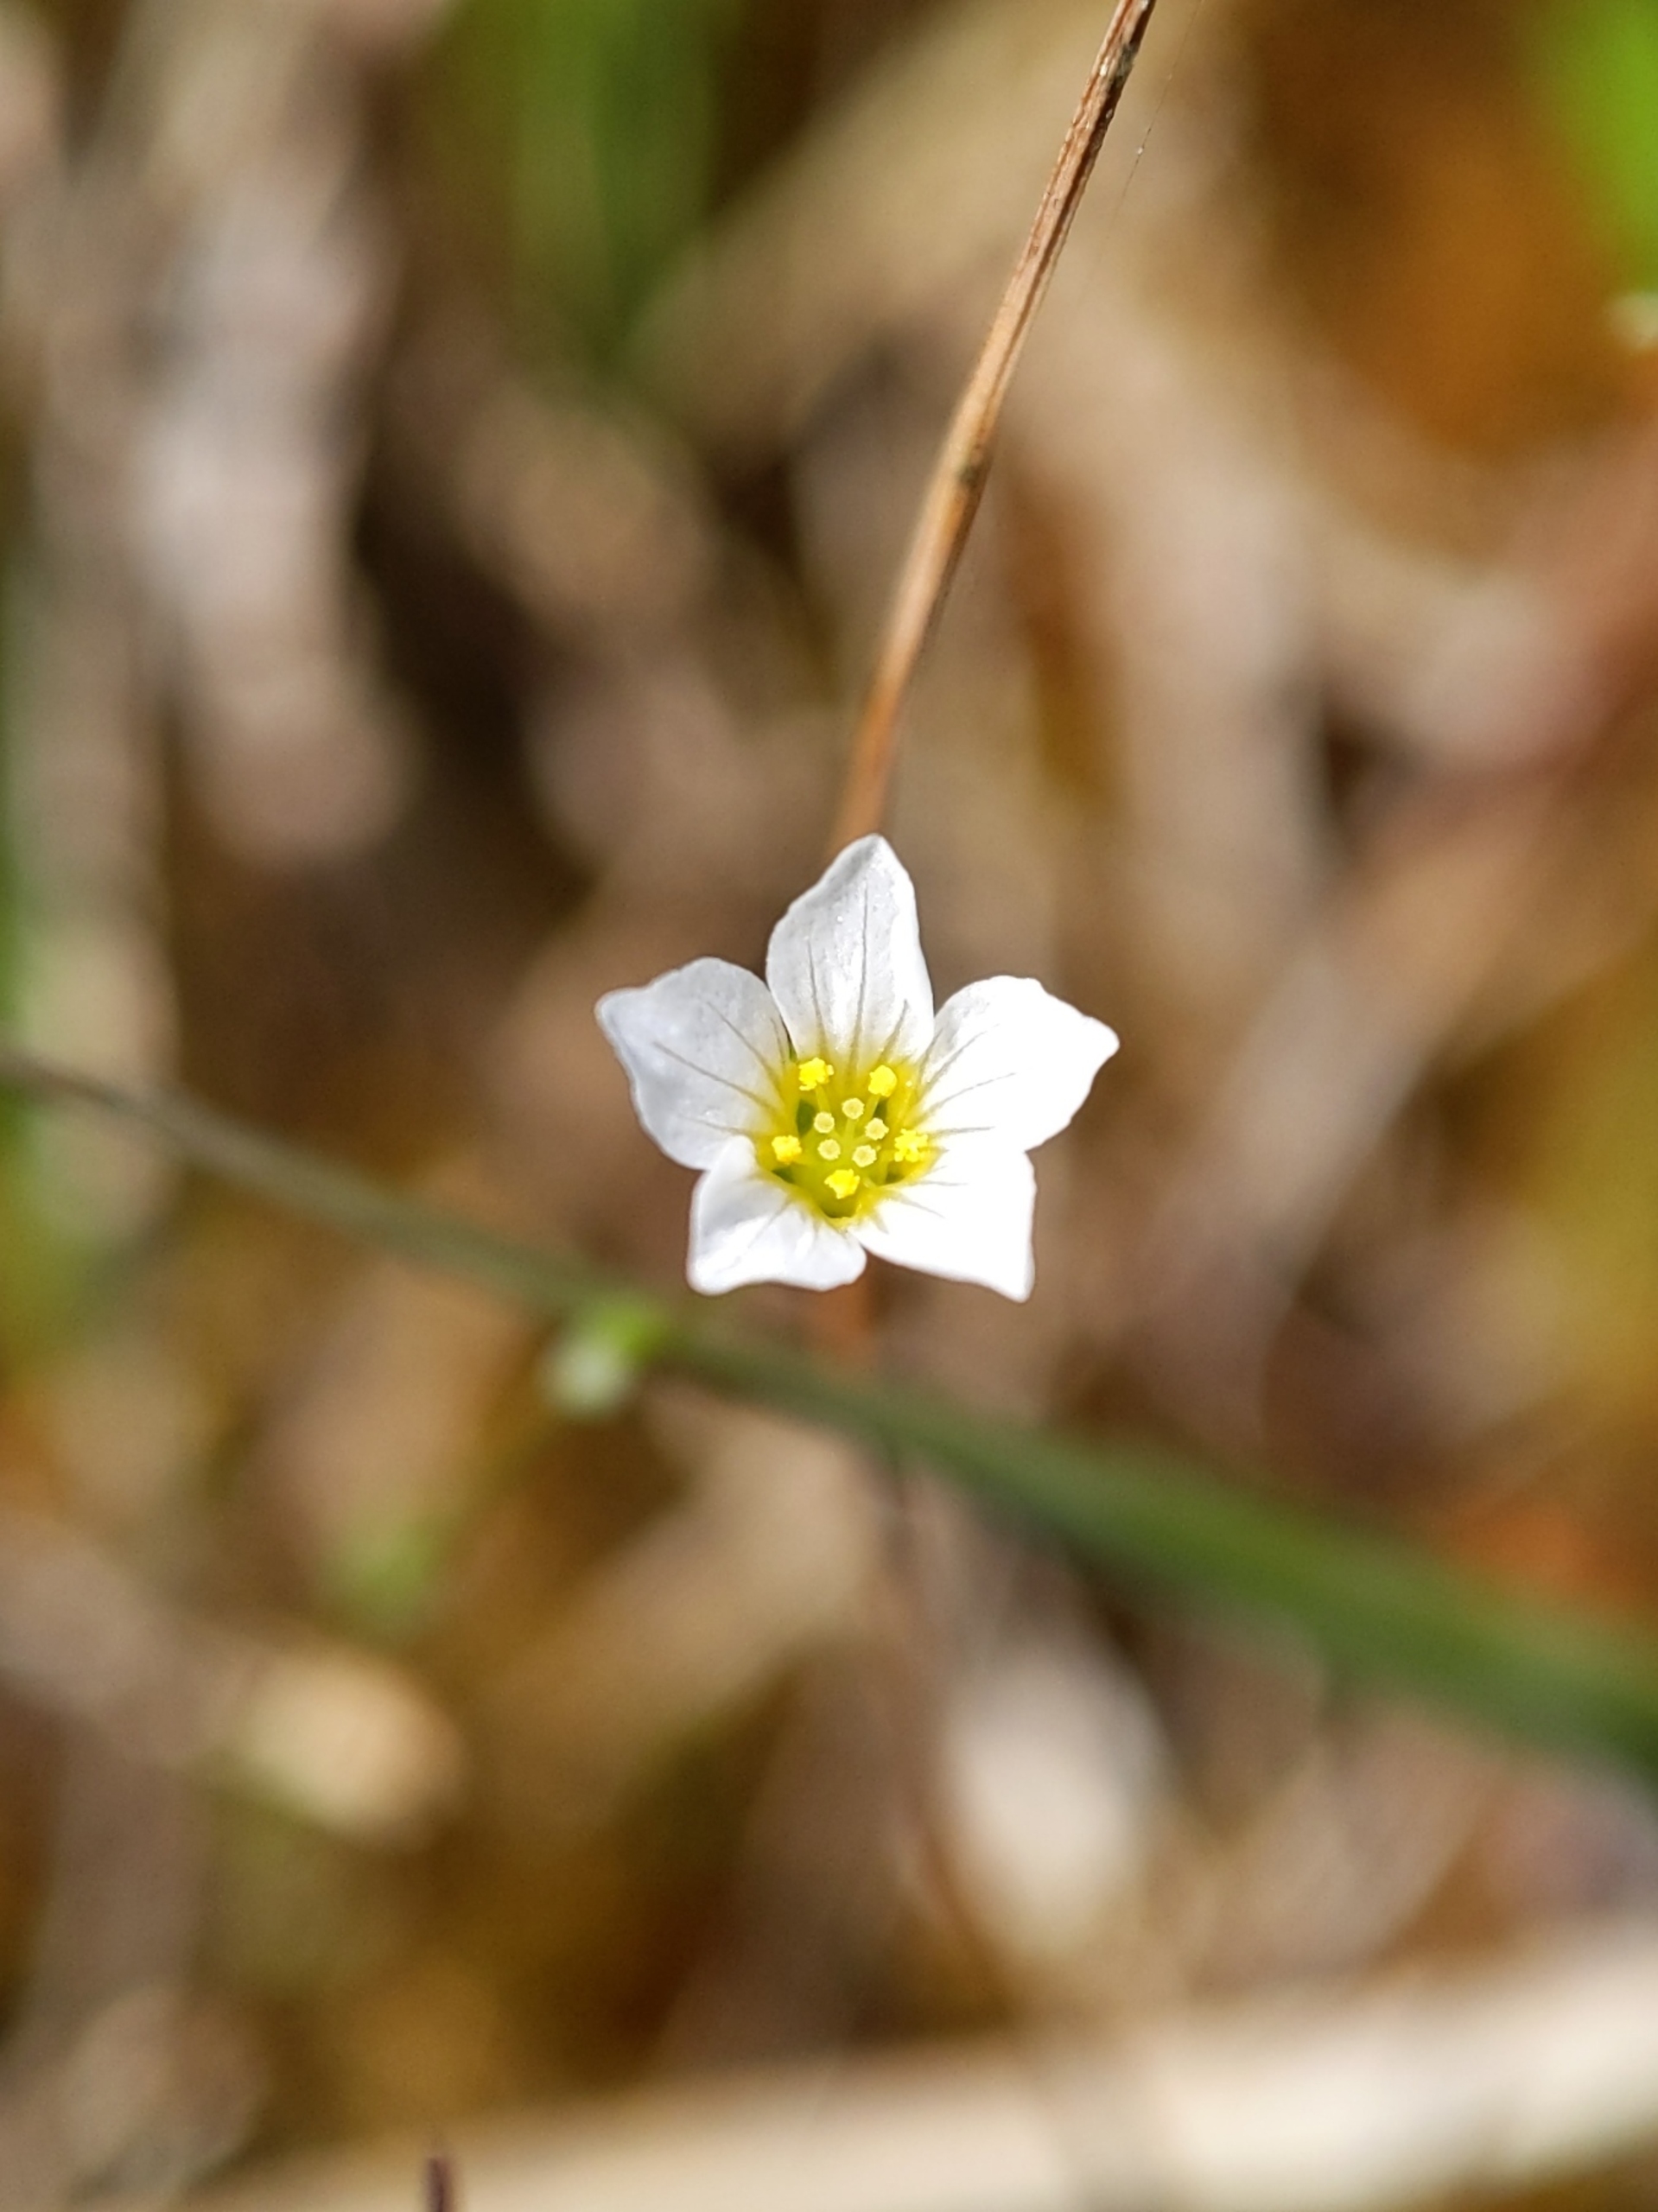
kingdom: Plantae
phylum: Tracheophyta
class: Magnoliopsida
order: Malpighiales
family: Linaceae
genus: Linum
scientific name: Linum catharticum
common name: Vild hør
